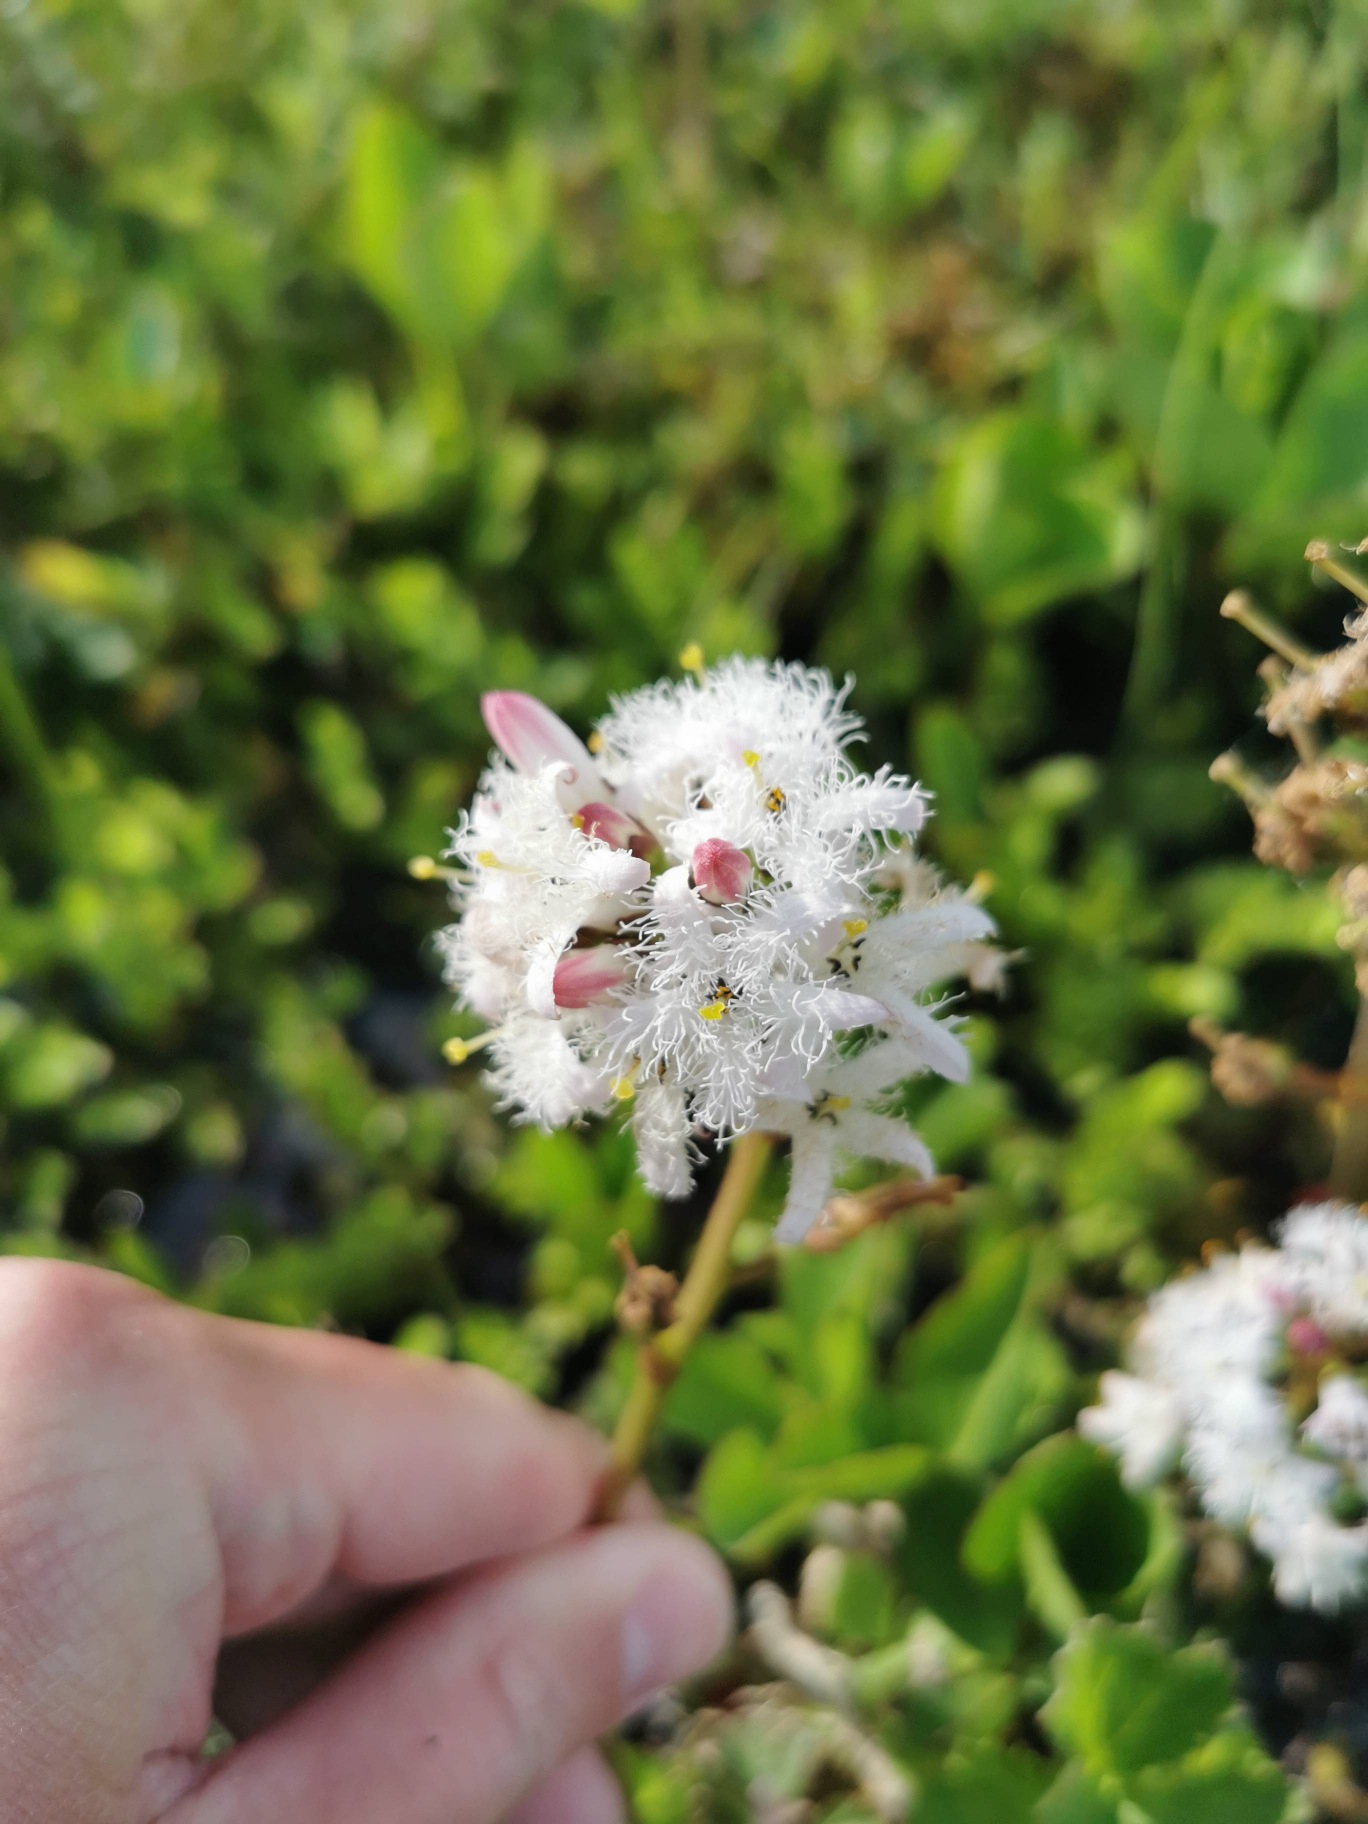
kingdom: Plantae
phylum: Tracheophyta
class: Magnoliopsida
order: Asterales
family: Menyanthaceae
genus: Menyanthes
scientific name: Menyanthes trifoliata
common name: Bukkeblad
